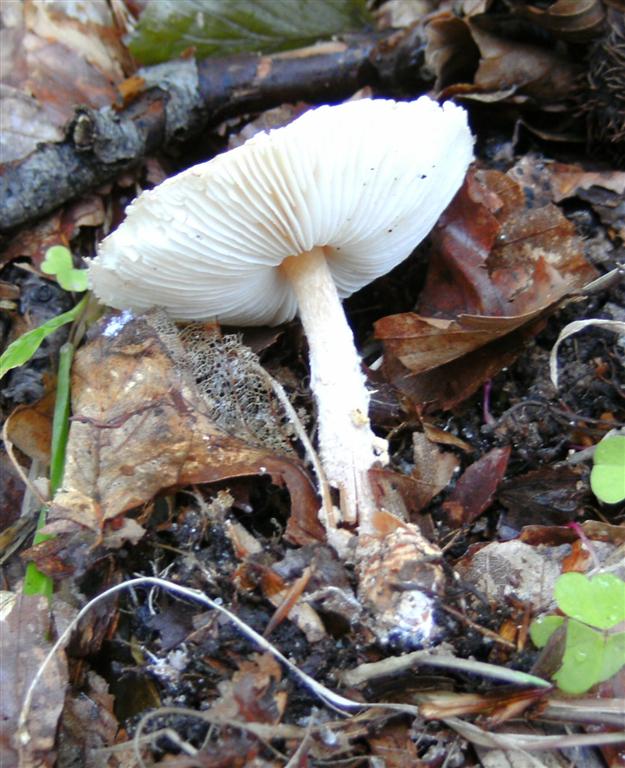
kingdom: Fungi
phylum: Basidiomycota
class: Agaricomycetes
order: Agaricales
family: Agaricaceae
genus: Lepiota
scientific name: Lepiota magnispora
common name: gulfnugget parasolhat
